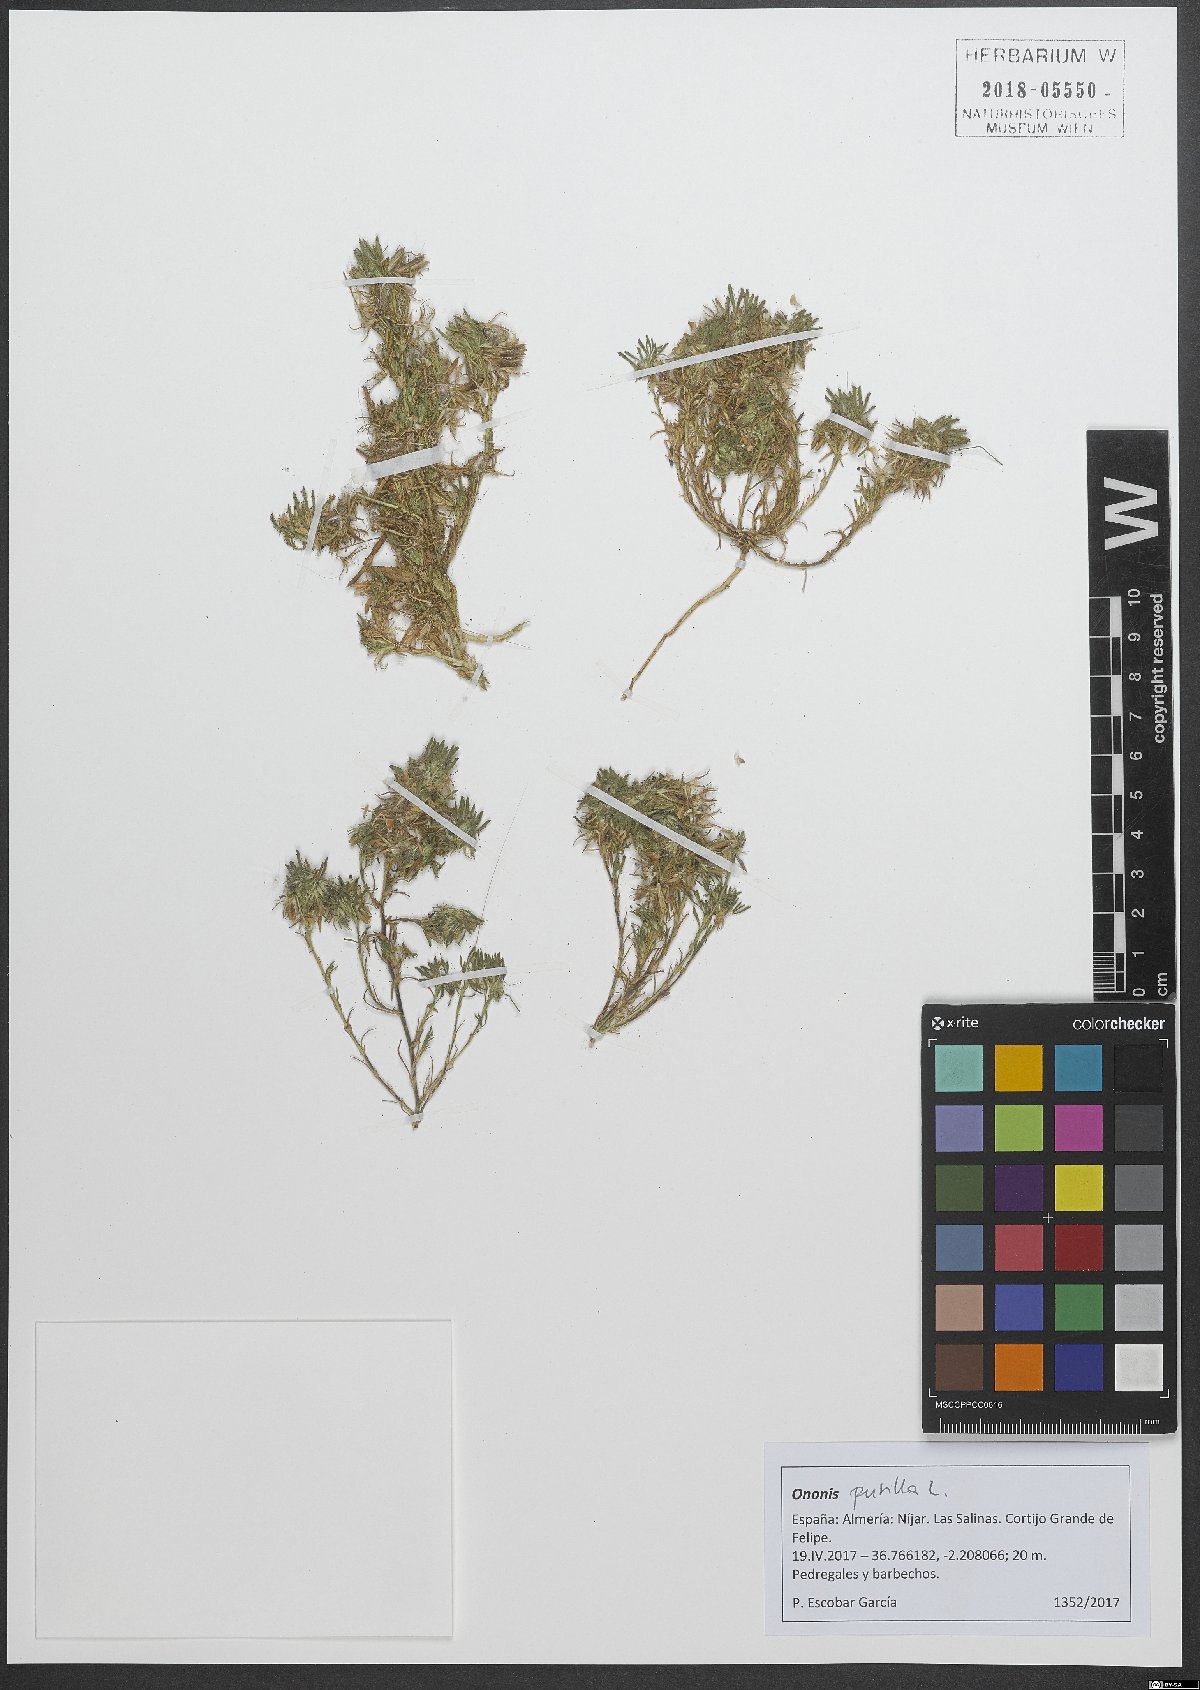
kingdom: Plantae
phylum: Tracheophyta
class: Magnoliopsida
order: Fabales
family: Fabaceae
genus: Ononis
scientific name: Ononis pusilla
